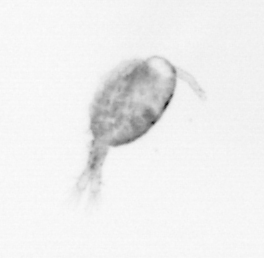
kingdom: Animalia
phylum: Arthropoda
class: Copepoda
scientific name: Copepoda
